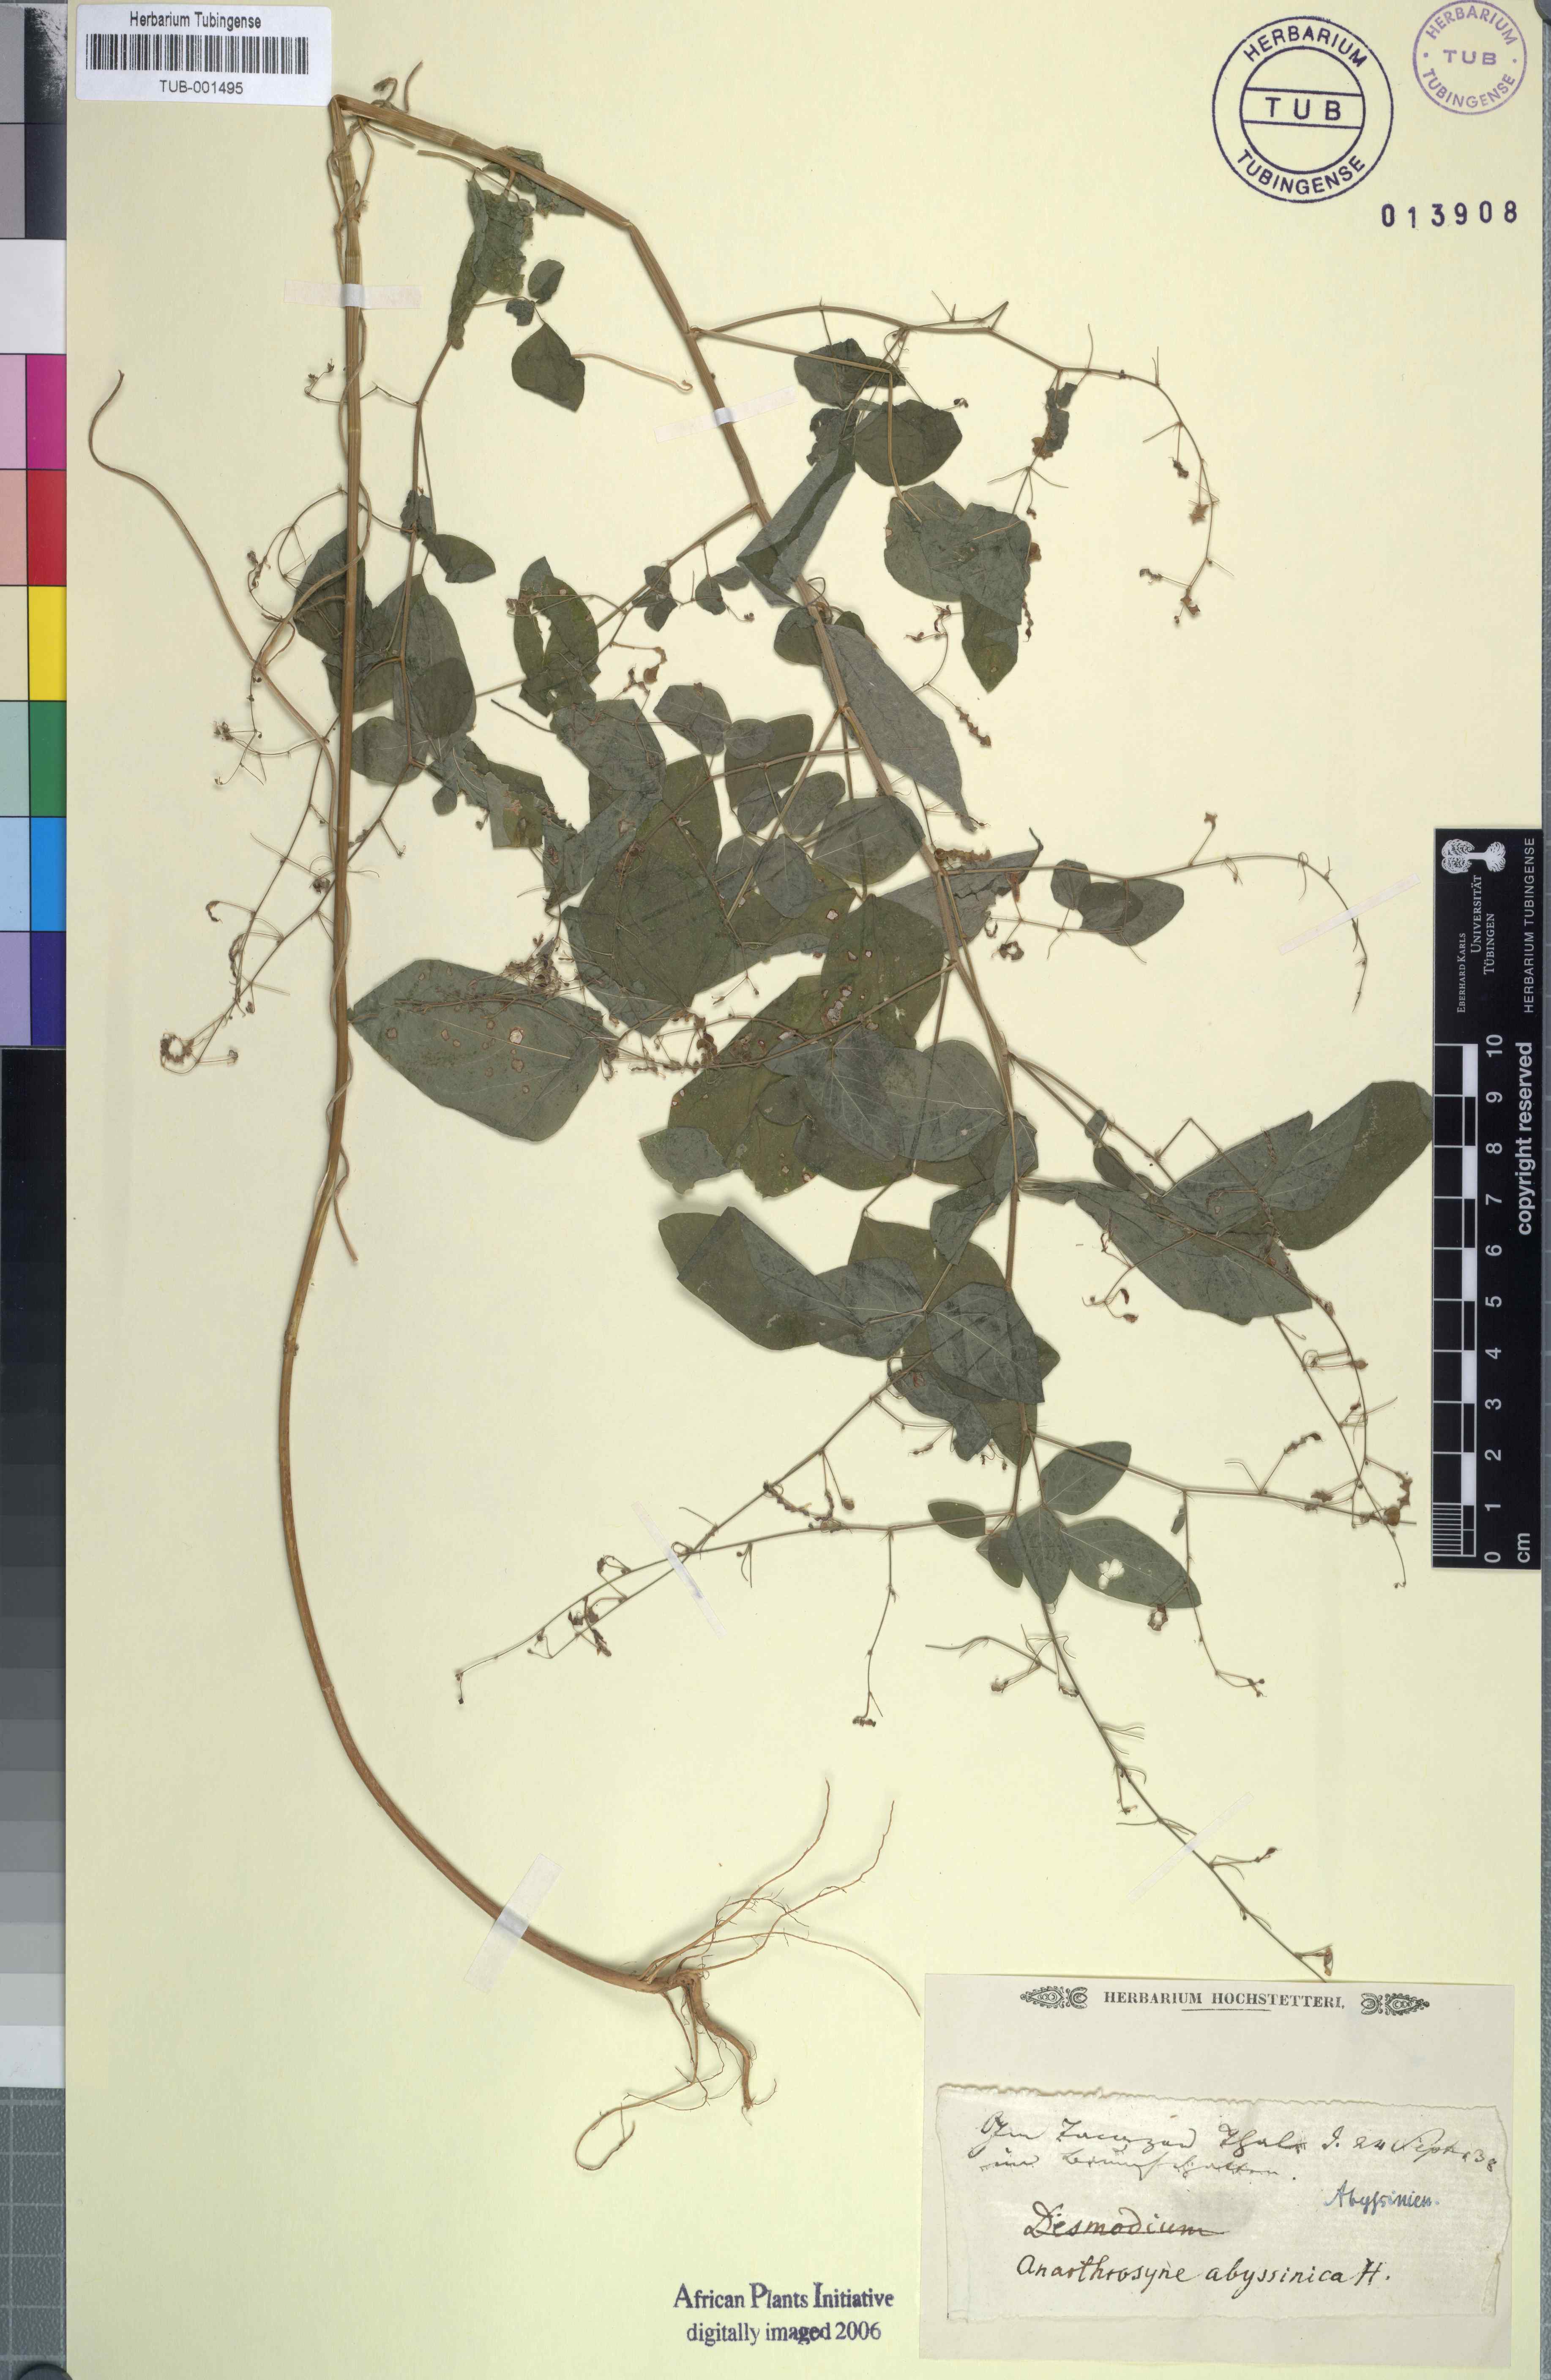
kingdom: Plantae
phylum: Tracheophyta
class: Magnoliopsida
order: Fabales
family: Fabaceae
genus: Desmodium
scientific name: Desmodium procumbens
